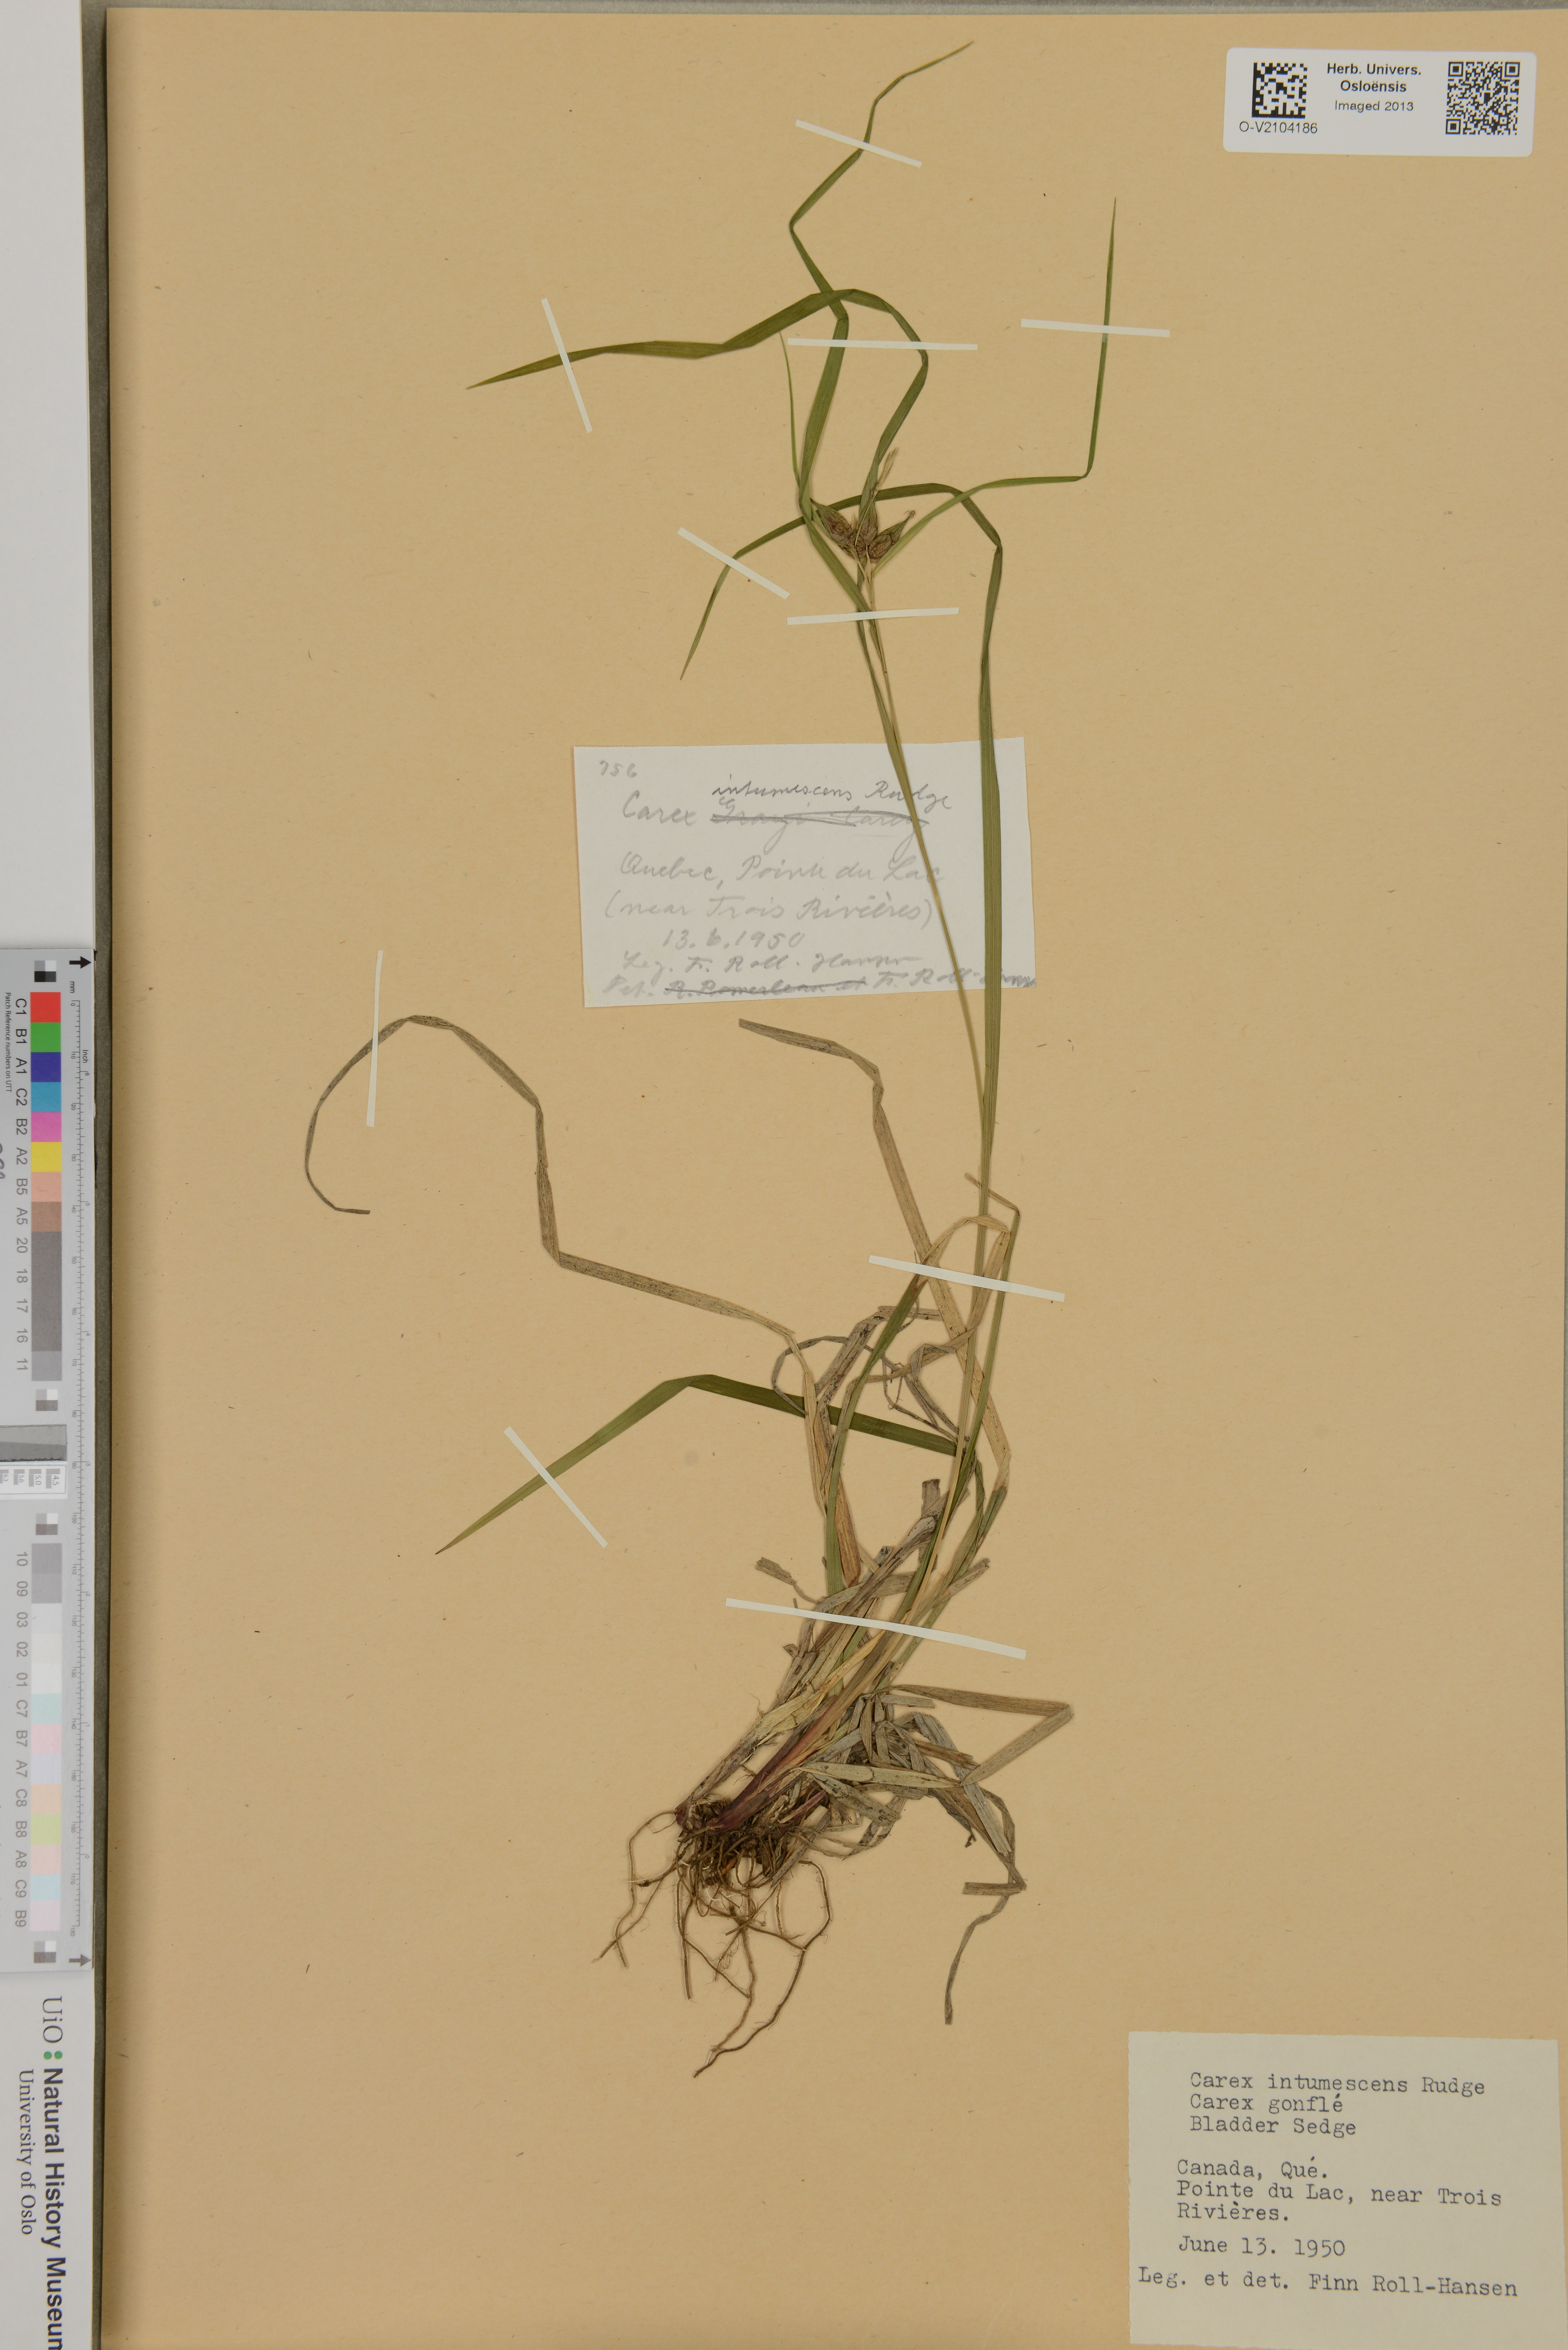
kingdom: Plantae
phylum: Tracheophyta
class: Liliopsida
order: Poales
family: Cyperaceae
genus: Carex
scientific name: Carex intumescens
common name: Greater bladder sedge
